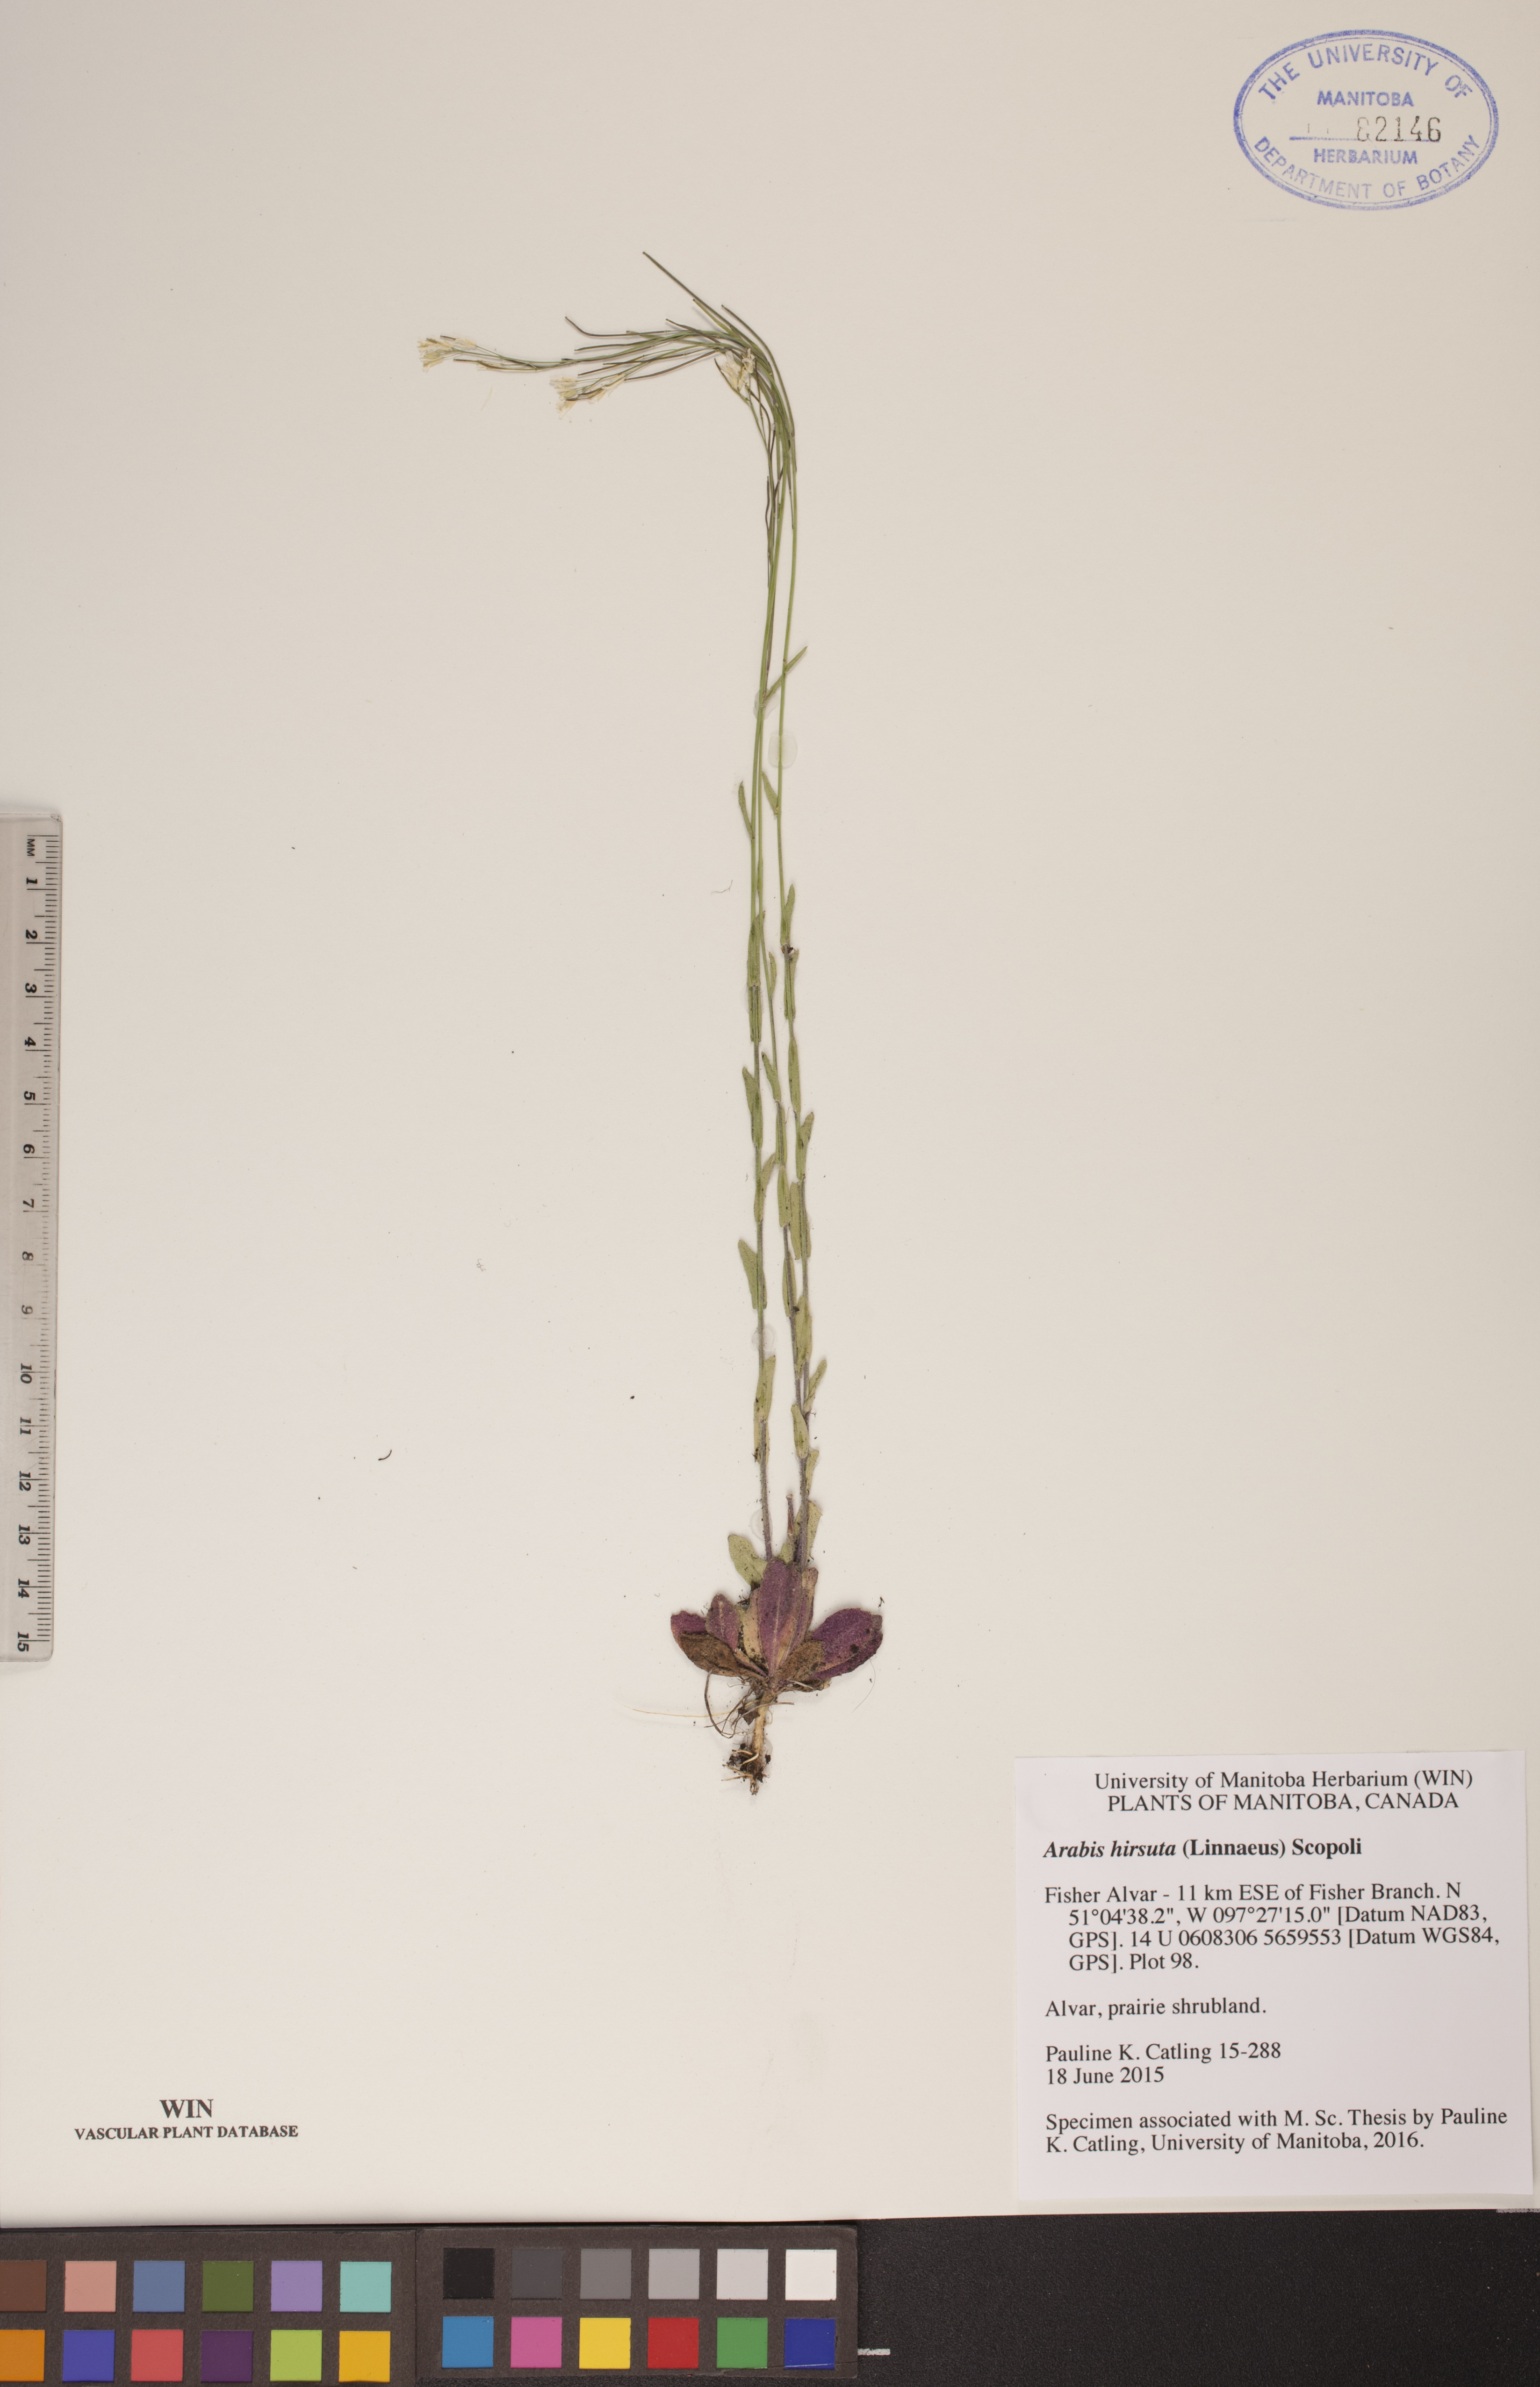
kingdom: Plantae
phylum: Tracheophyta
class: Magnoliopsida
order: Brassicales
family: Brassicaceae
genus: Arabis
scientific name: Arabis hirsuta
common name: Hairy rock-cress
